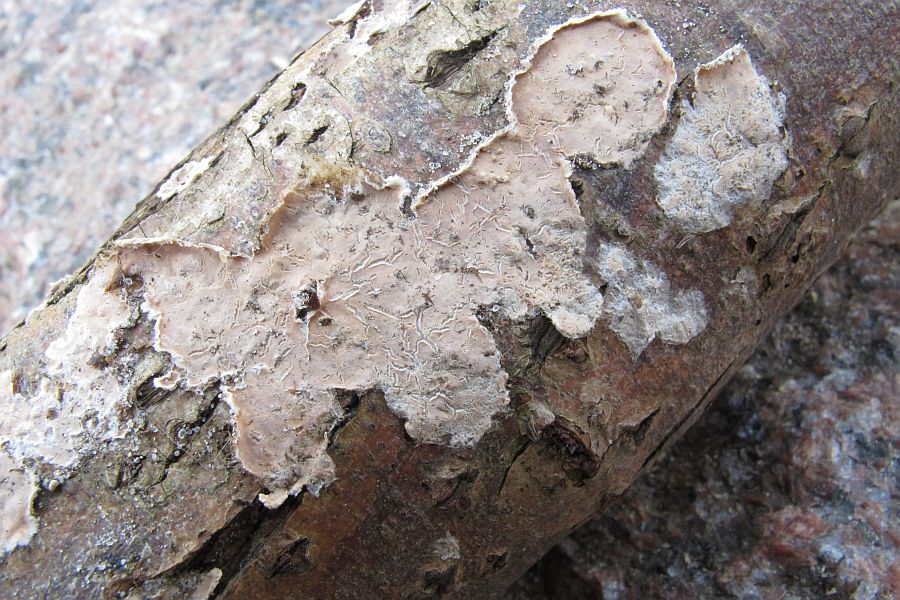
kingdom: Fungi
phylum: Basidiomycota
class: Agaricomycetes
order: Agaricales
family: Physalacriaceae
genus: Cylindrobasidium
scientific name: Cylindrobasidium evolvens
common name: sprækkehinde
